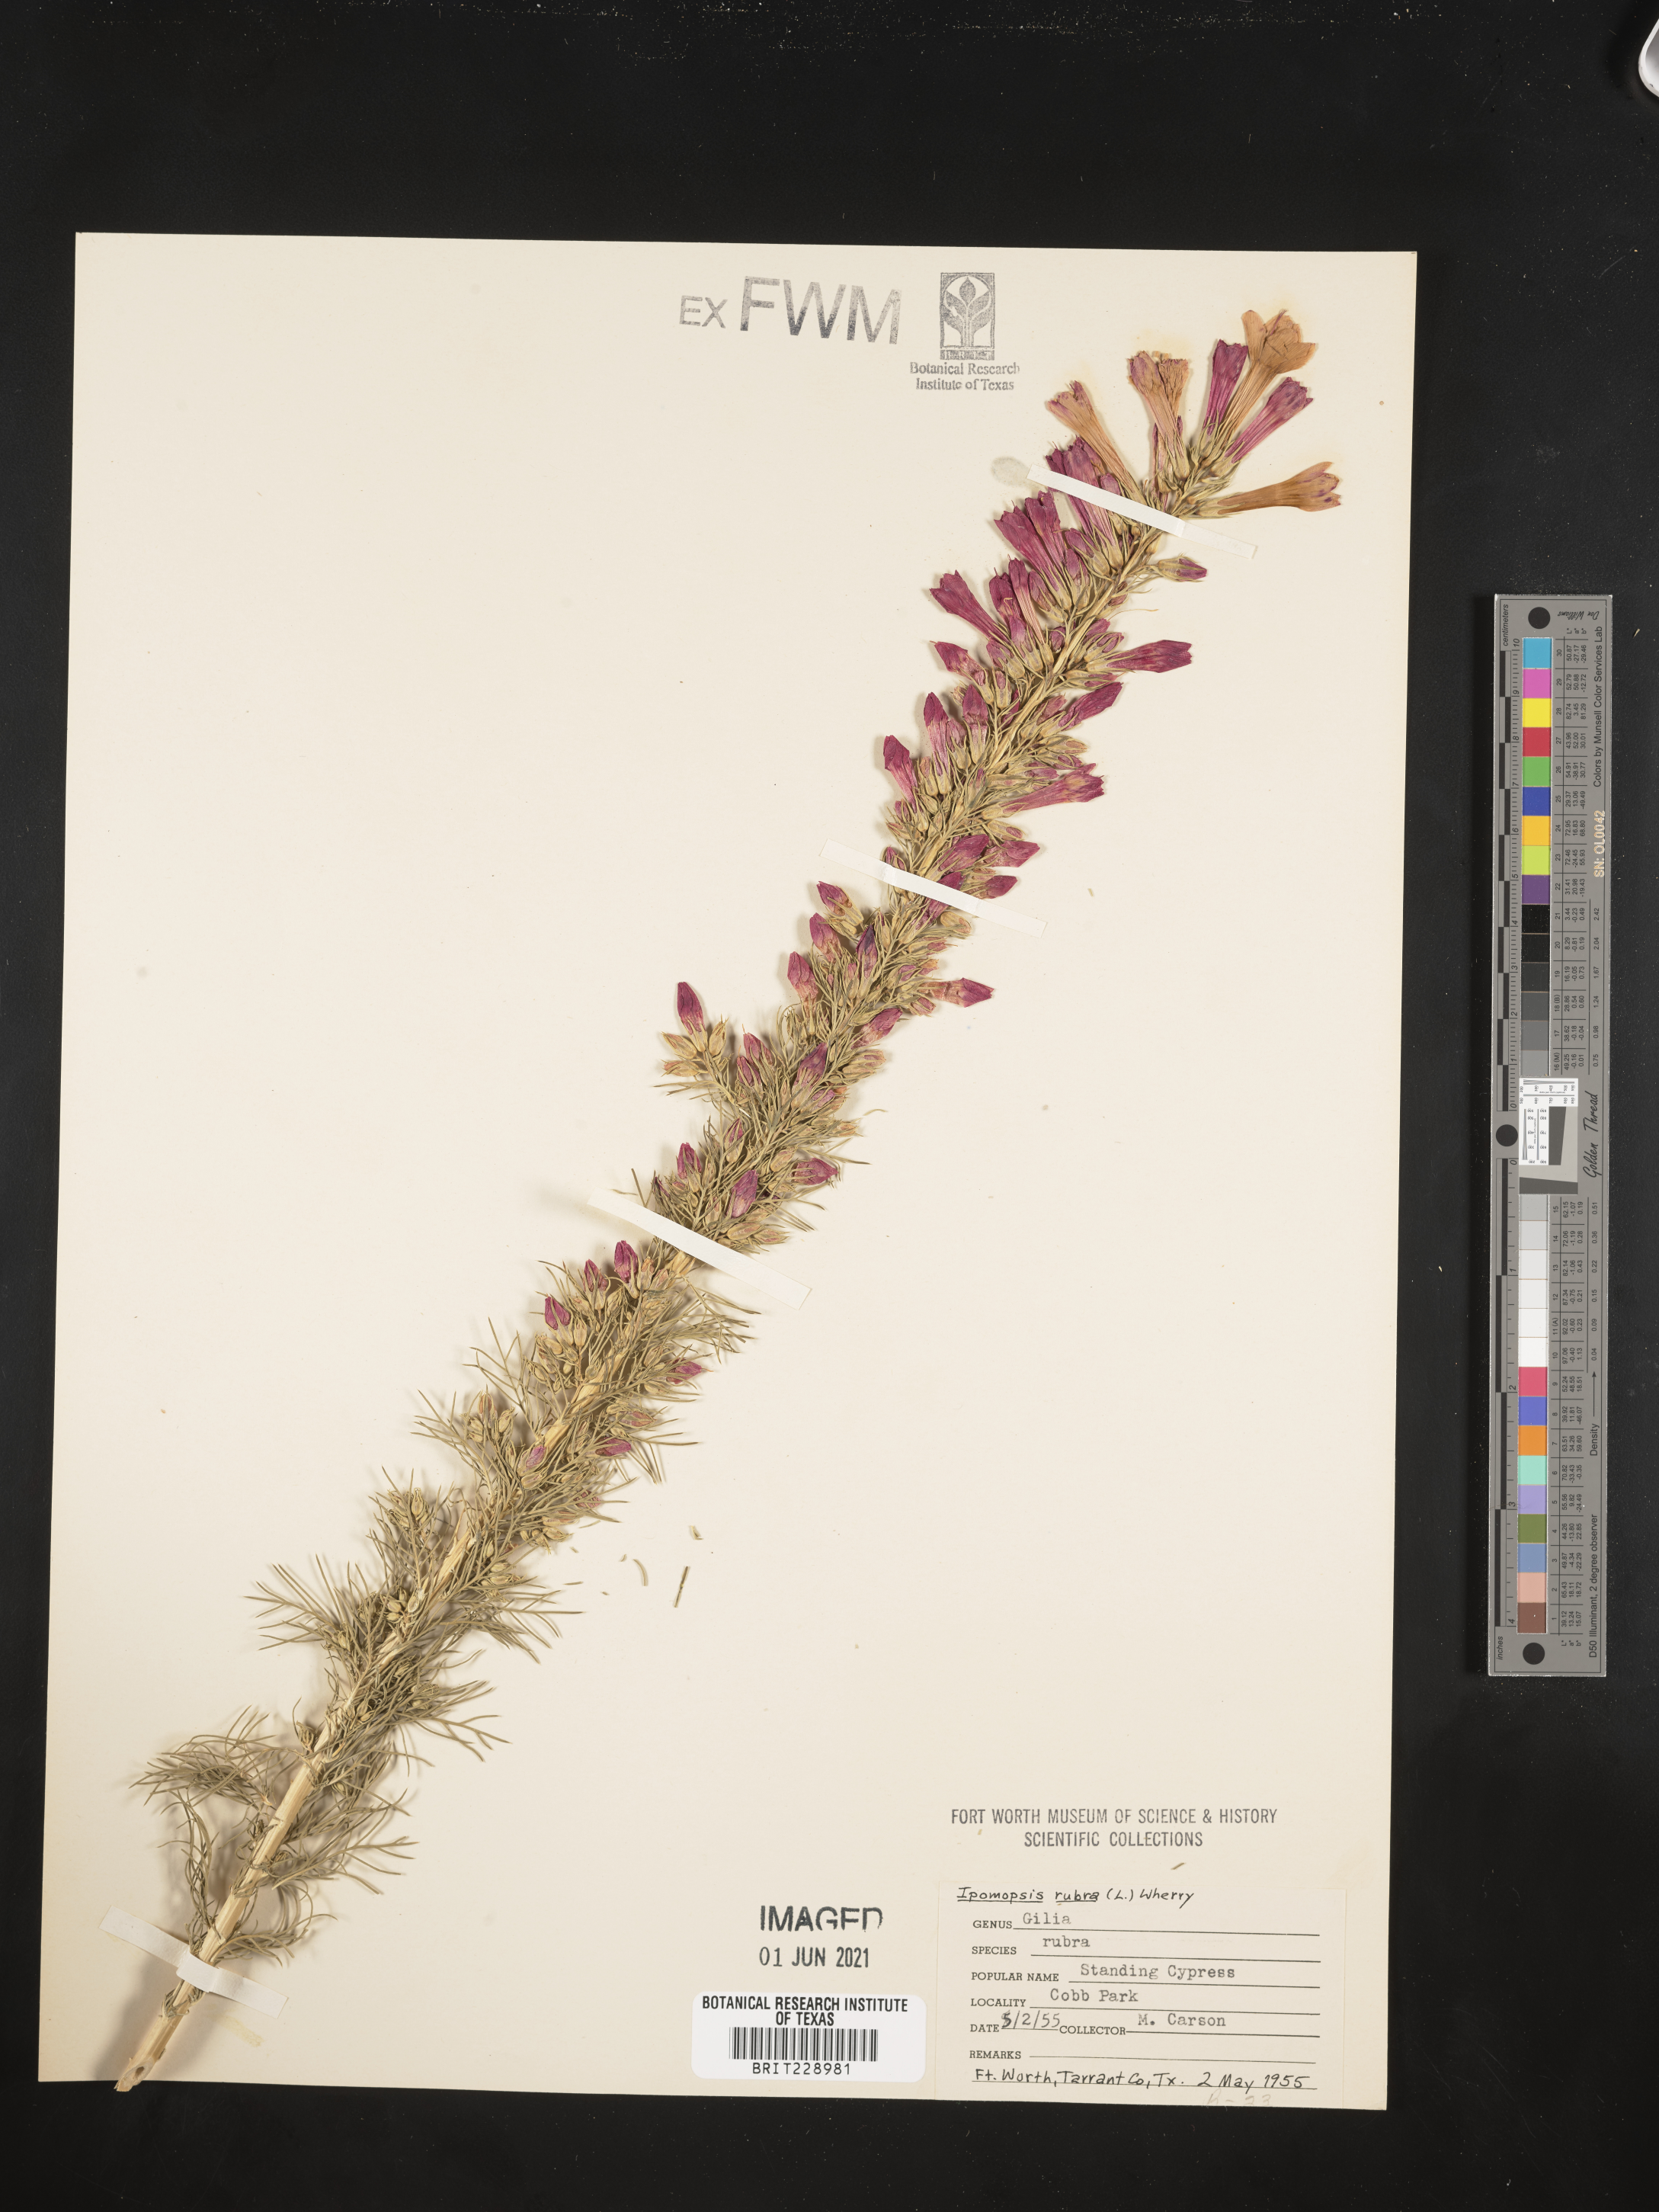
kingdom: Plantae
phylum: Tracheophyta
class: Magnoliopsida
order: Ericales
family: Polemoniaceae
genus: Ipomopsis
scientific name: Ipomopsis rubra
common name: Skyrocket
